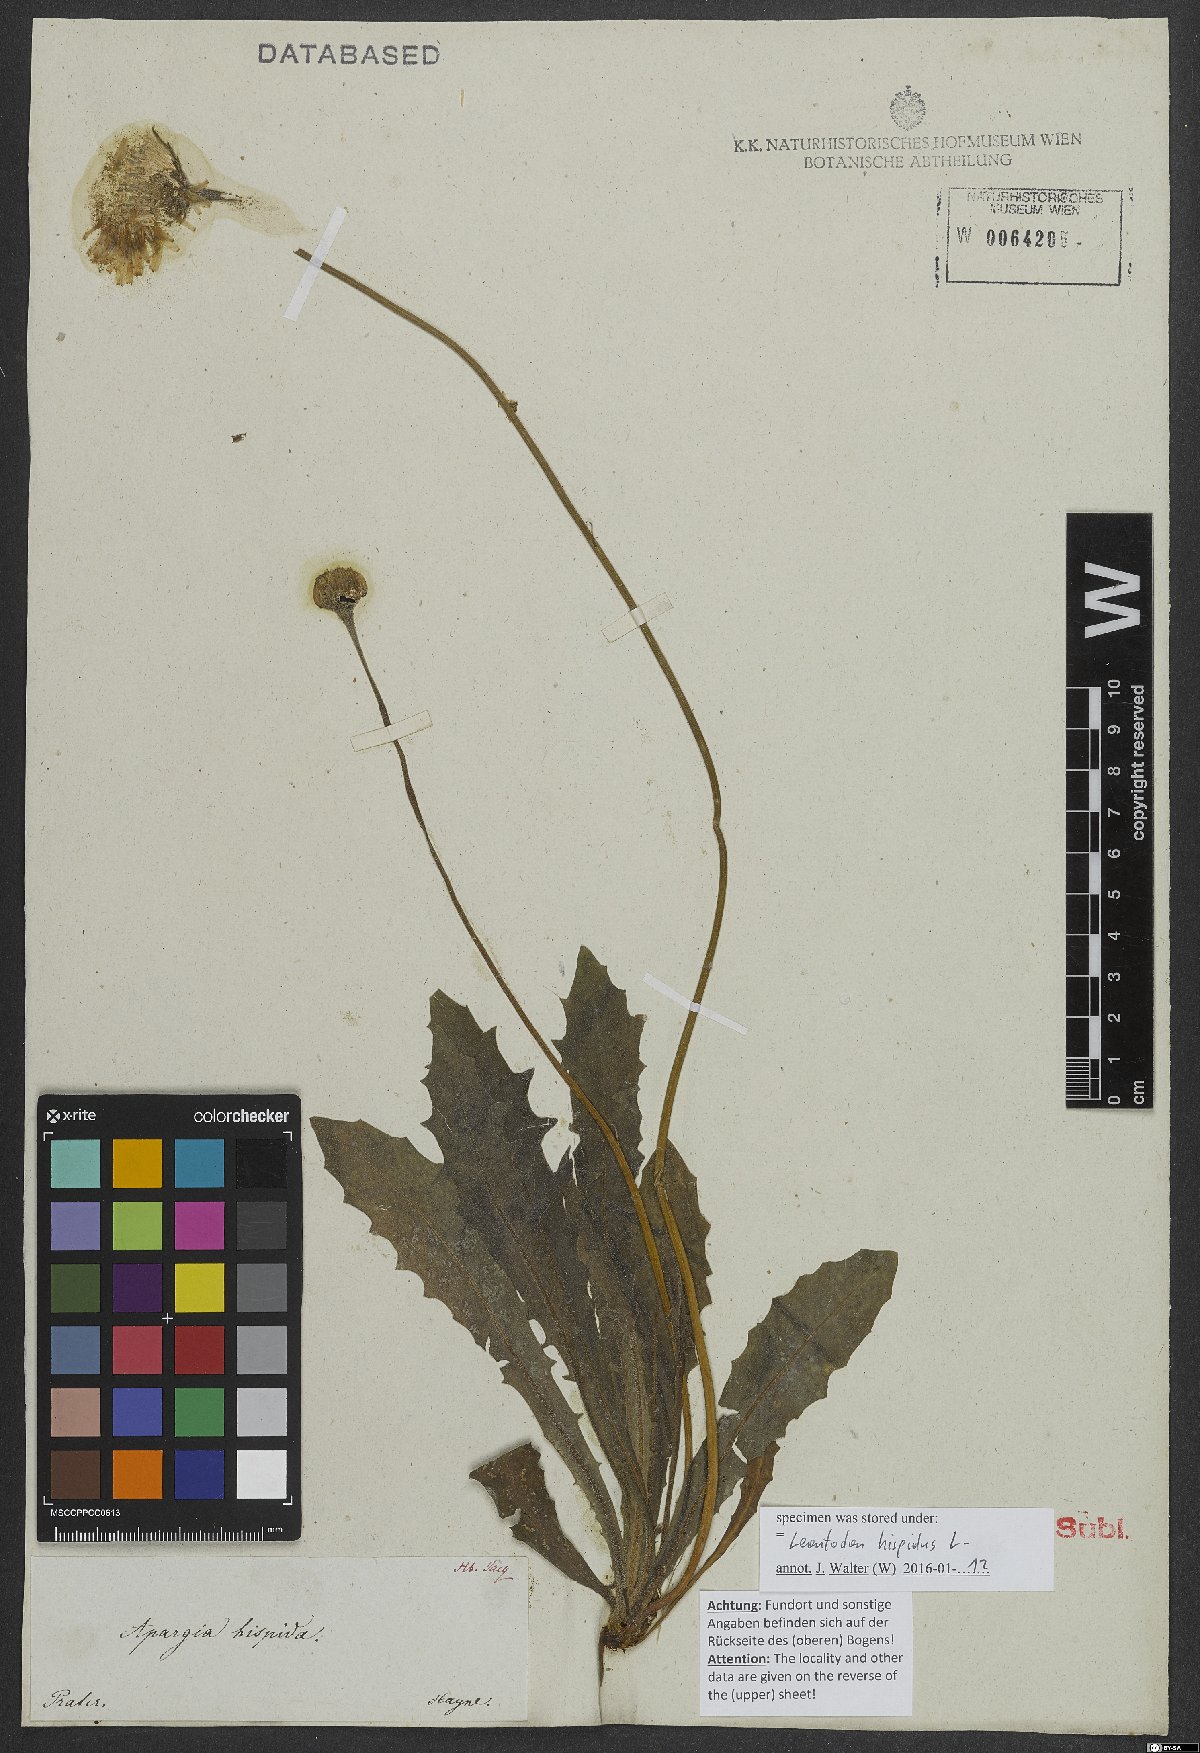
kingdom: Plantae
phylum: Tracheophyta
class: Magnoliopsida
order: Asterales
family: Asteraceae
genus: Leontodon
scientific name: Leontodon hispidus
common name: Rough hawkbit
